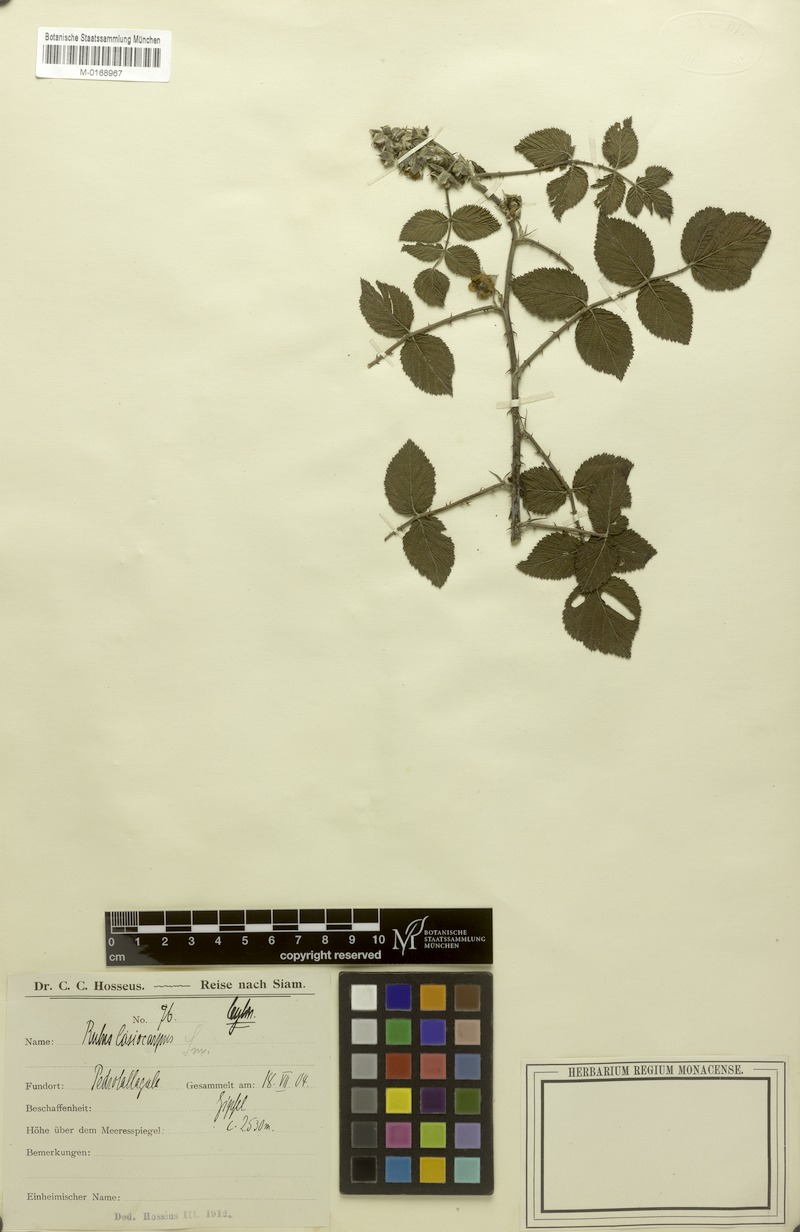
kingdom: Plantae
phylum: Tracheophyta
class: Magnoliopsida
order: Rosales
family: Rosaceae
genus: Rubus
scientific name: Rubus niveus
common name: Snowpeaks raspberry
